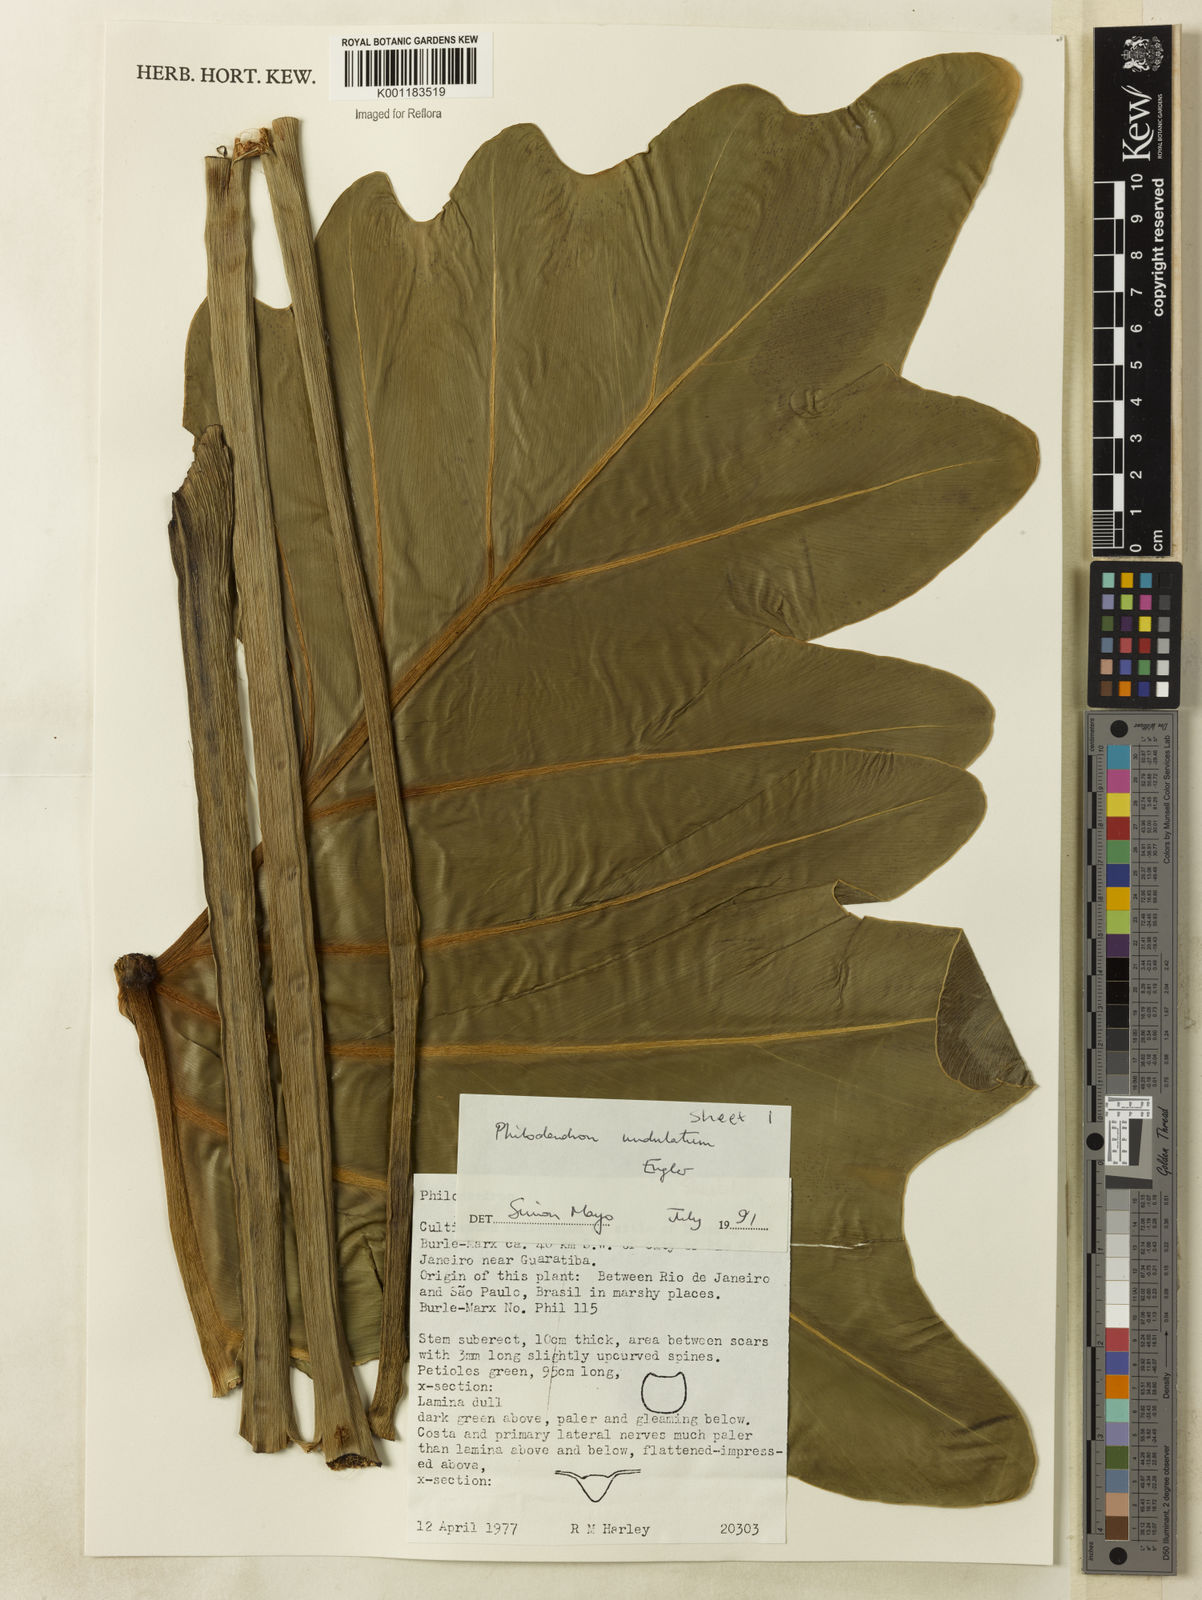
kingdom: Plantae
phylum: Tracheophyta
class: Liliopsida
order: Alismatales
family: Araceae
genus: Thaumatophyllum
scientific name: Thaumatophyllum undulatum
